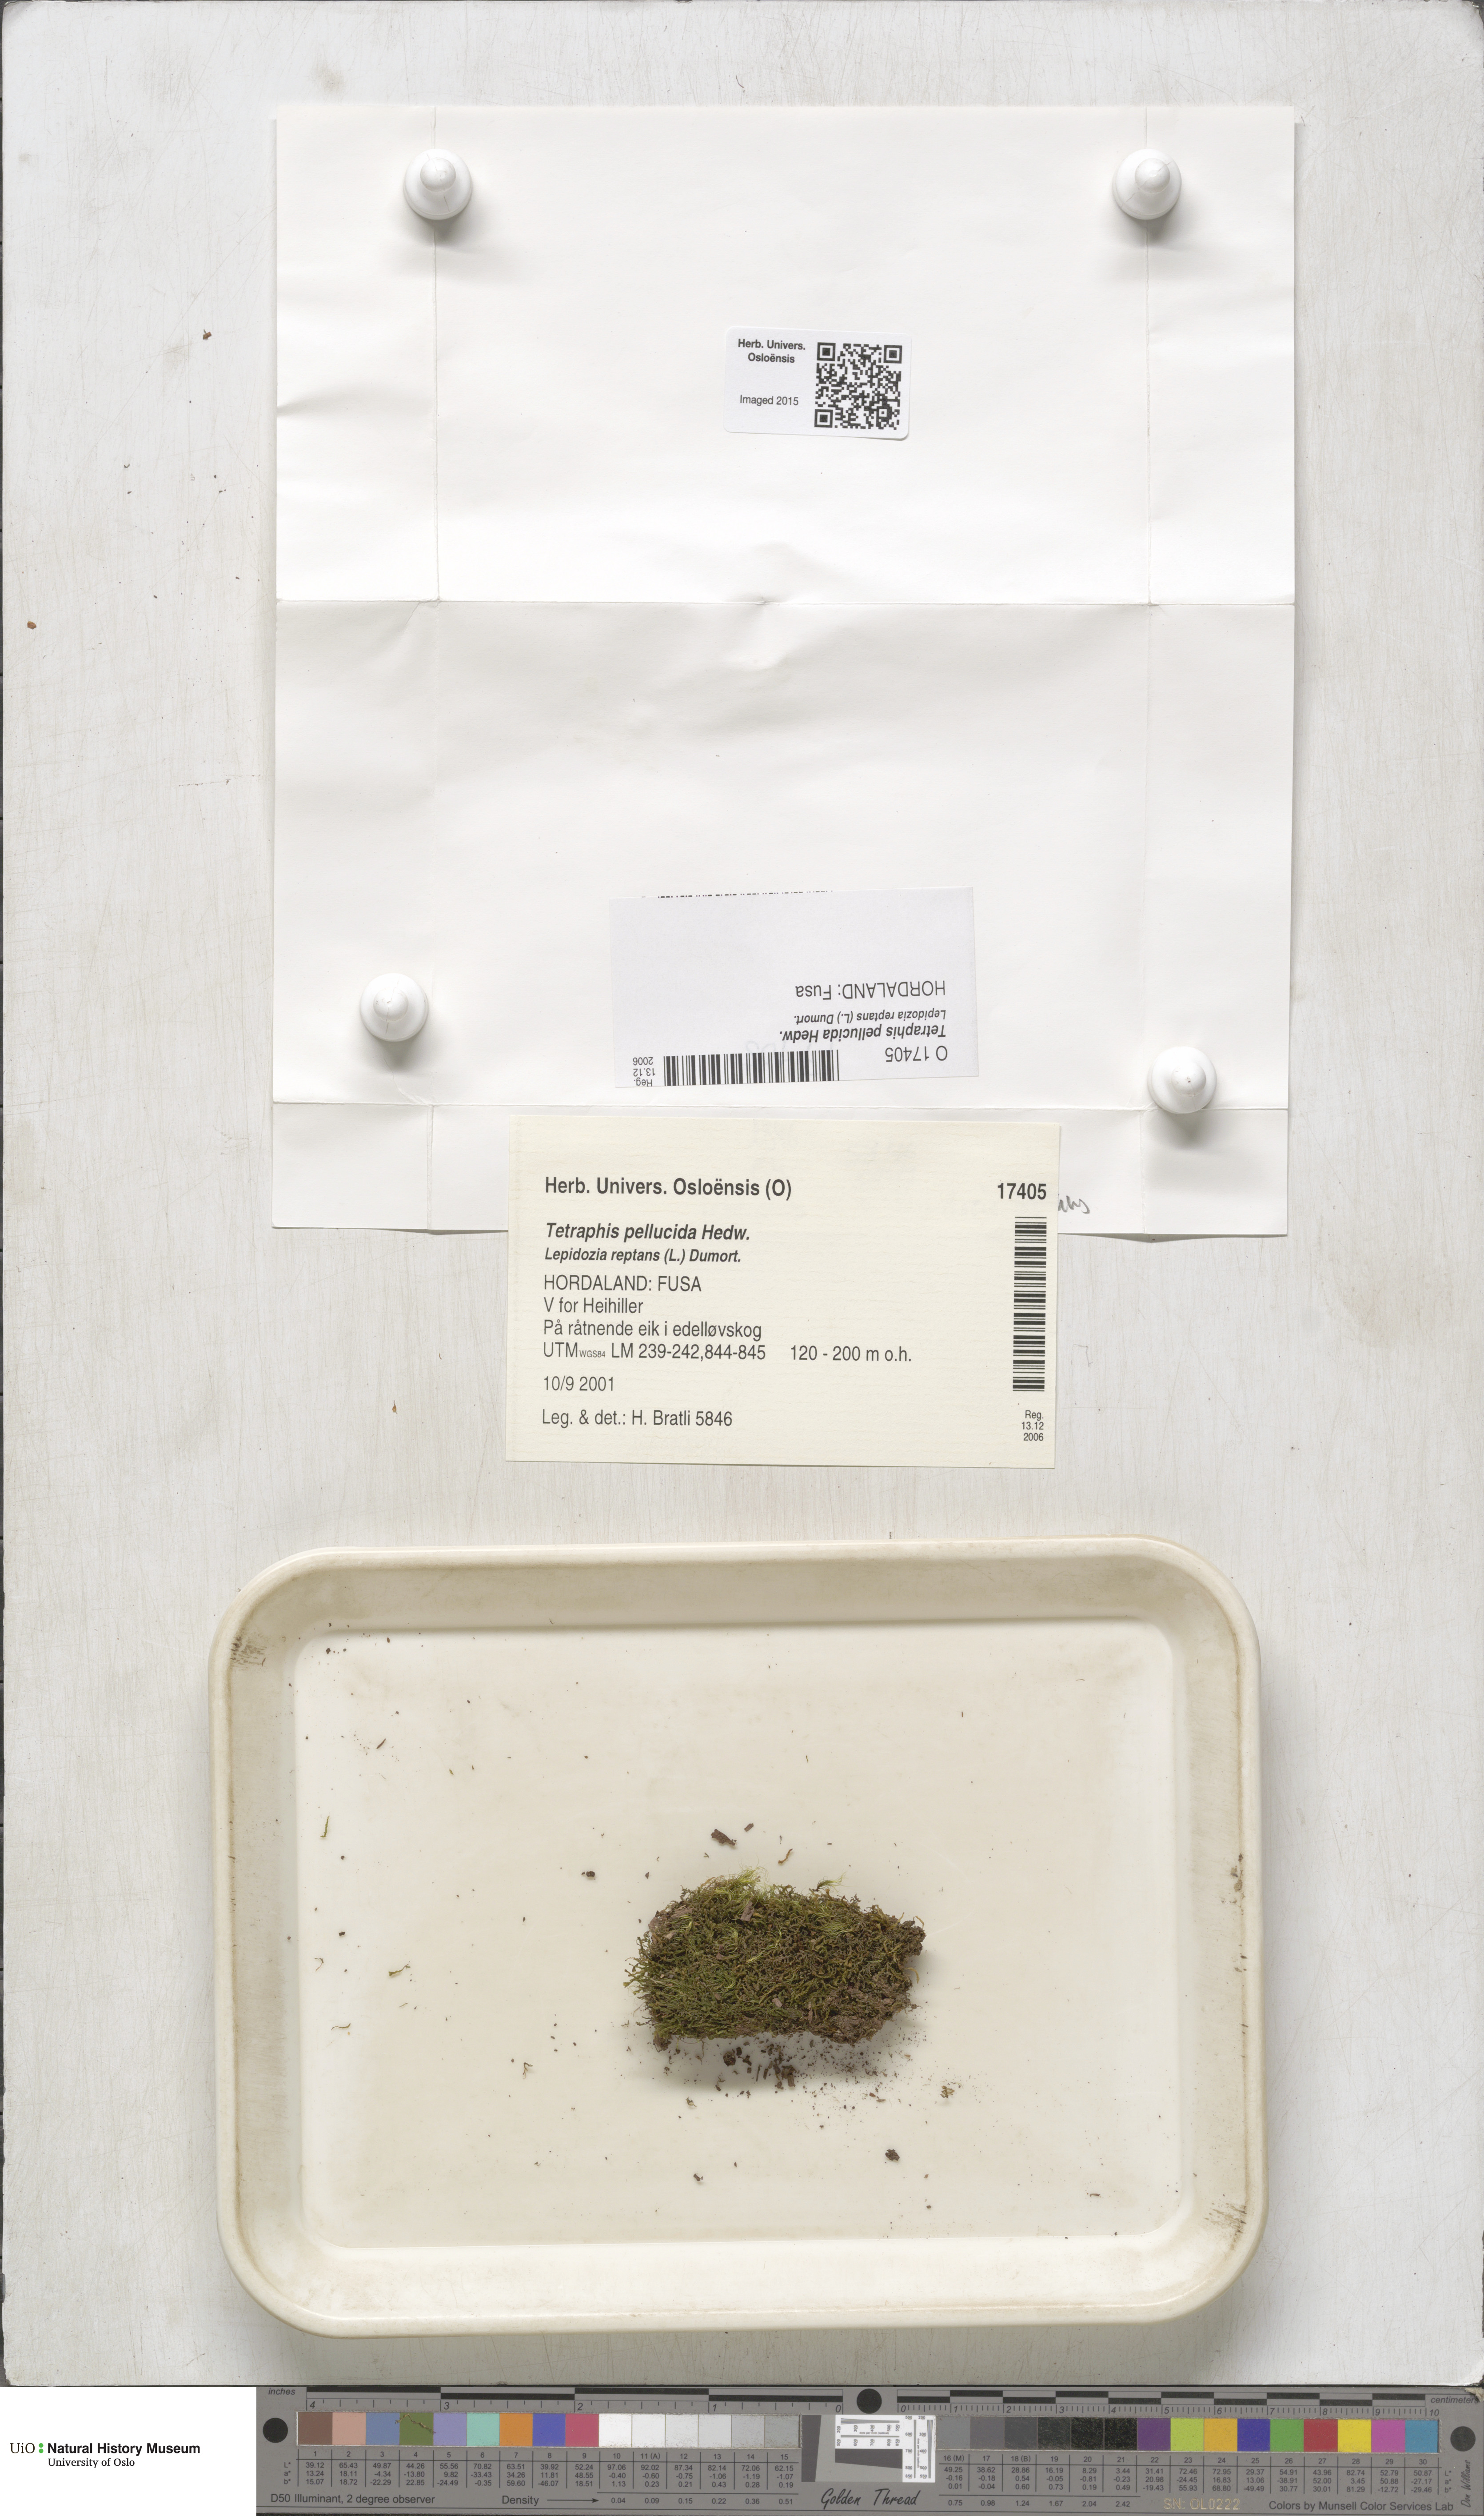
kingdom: Plantae
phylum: Bryophyta
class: Polytrichopsida
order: Tetraphidales
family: Tetraphidaceae
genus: Tetraphis
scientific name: Tetraphis pellucida
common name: Common four-toothed moss
